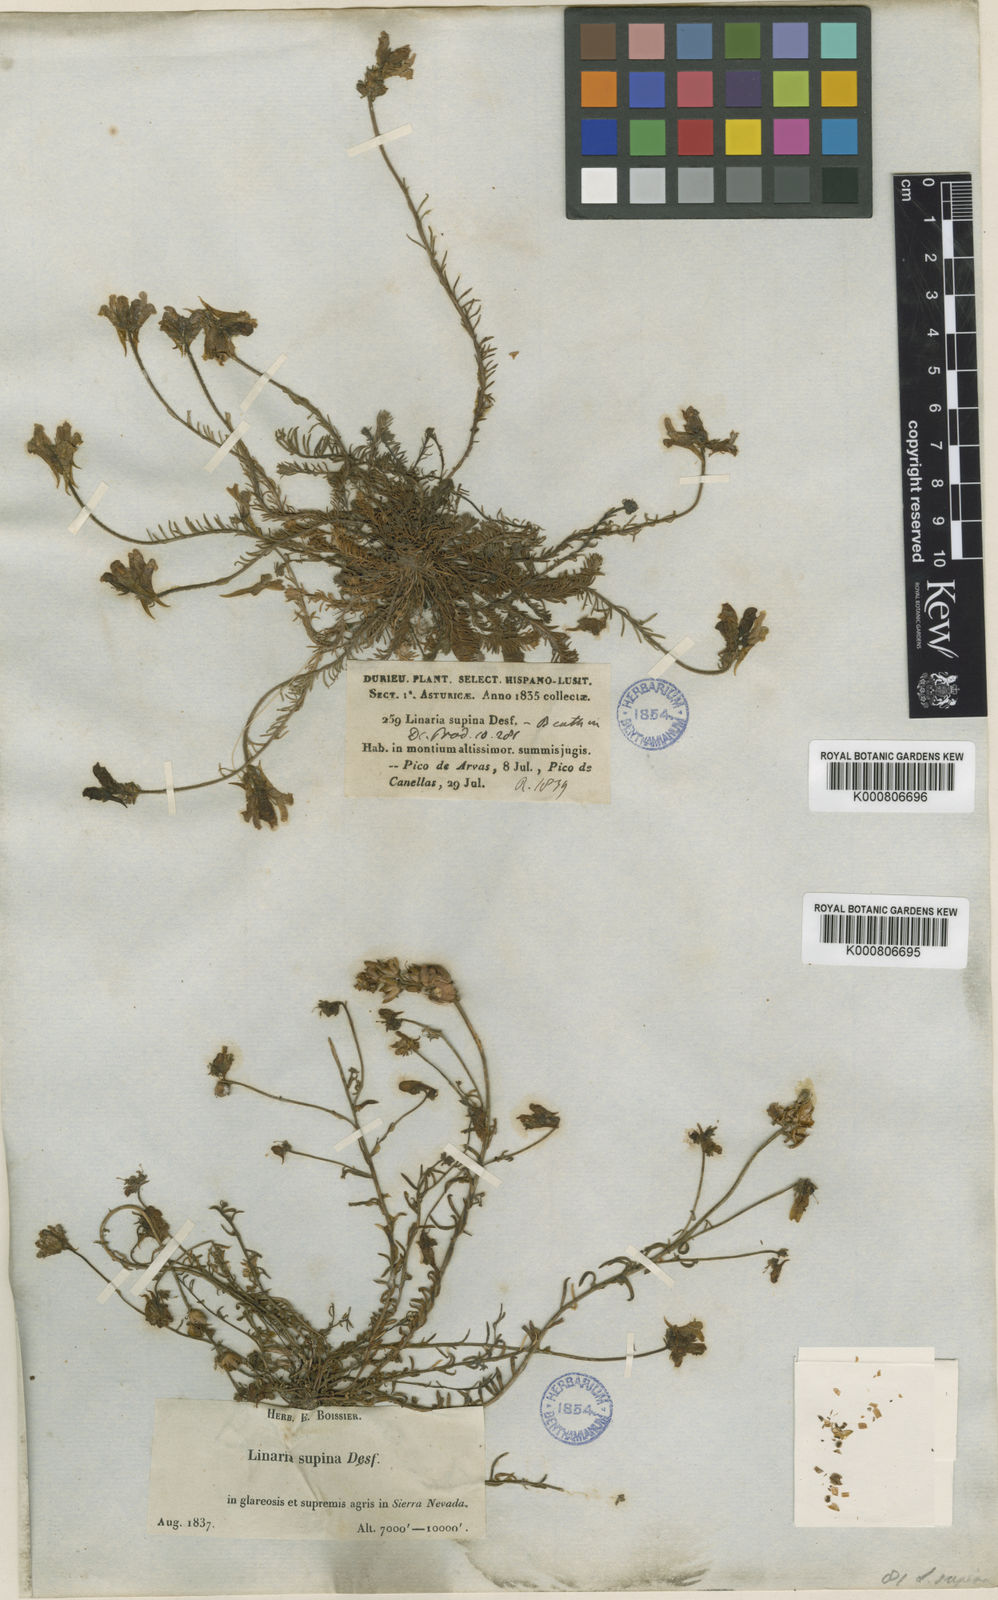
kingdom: Plantae
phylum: Tracheophyta
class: Magnoliopsida
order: Lamiales
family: Plantaginaceae
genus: Linaria
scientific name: Linaria aeruginea
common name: Roadside toadflax
